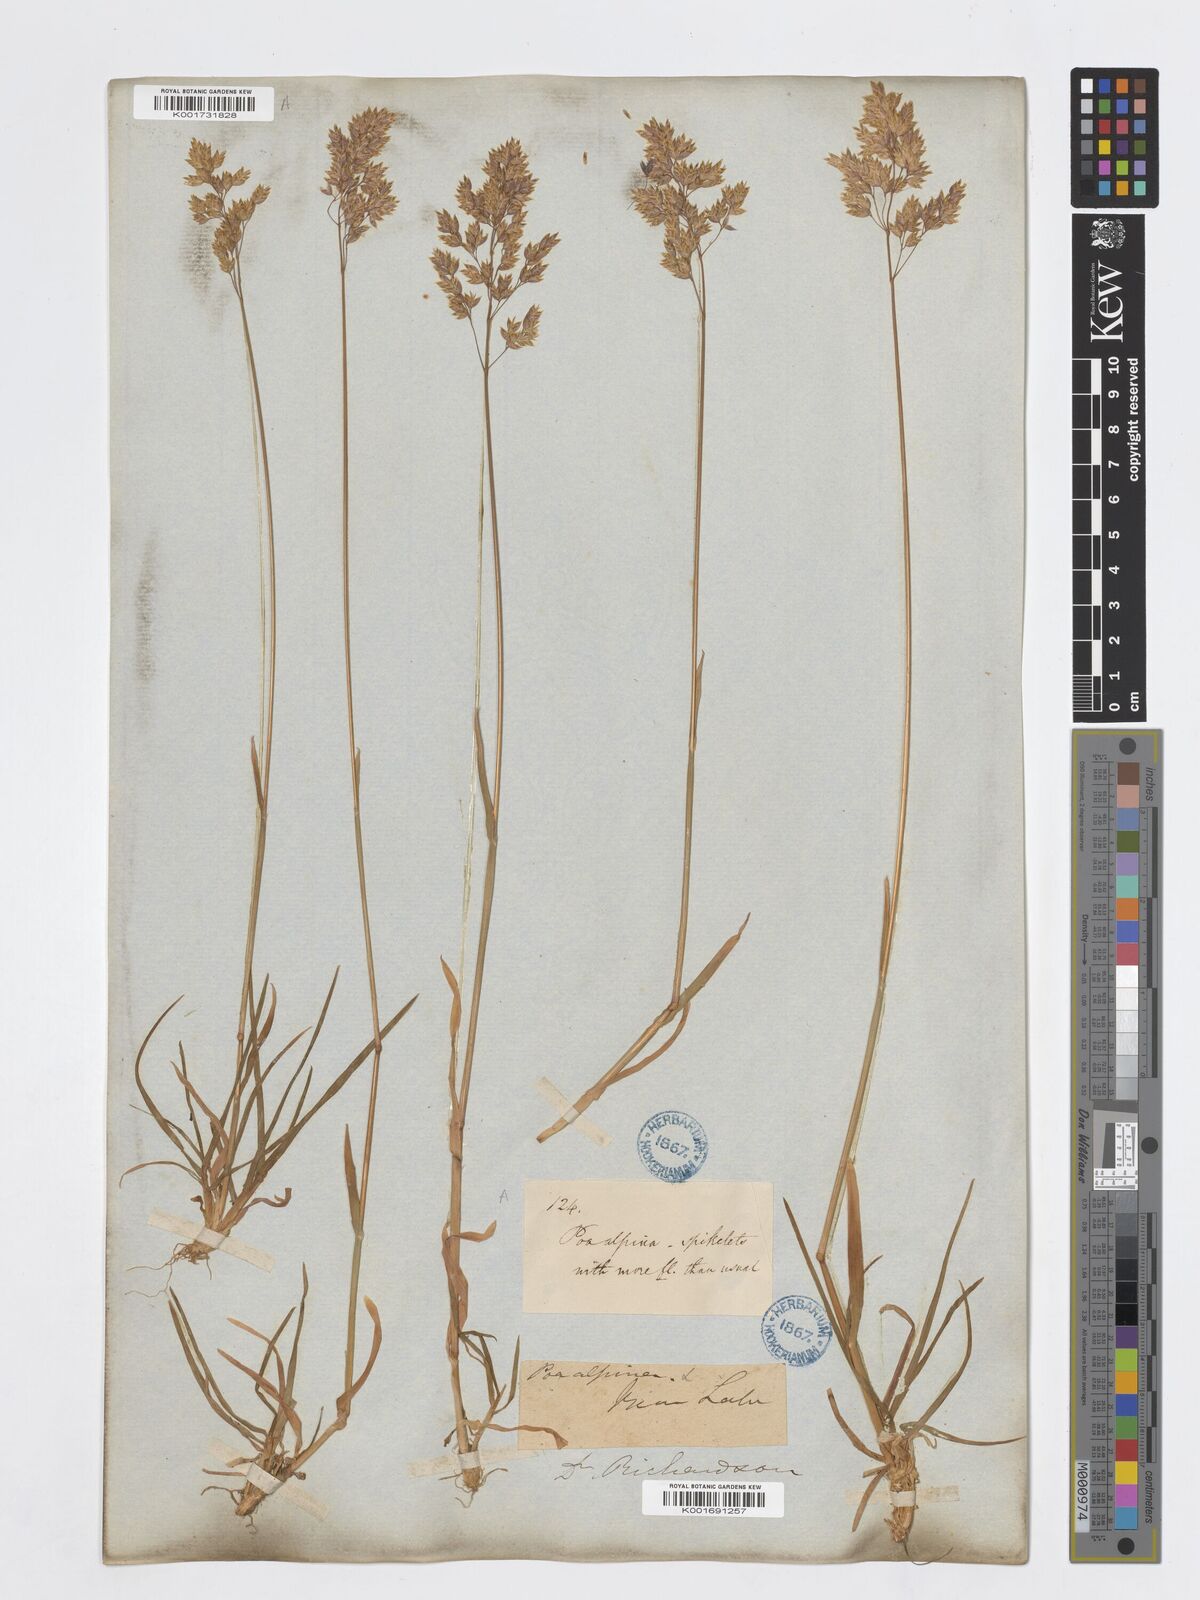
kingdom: Plantae
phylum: Tracheophyta
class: Liliopsida
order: Poales
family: Poaceae
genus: Poa
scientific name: Poa alpina
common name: Alpine bluegrass
